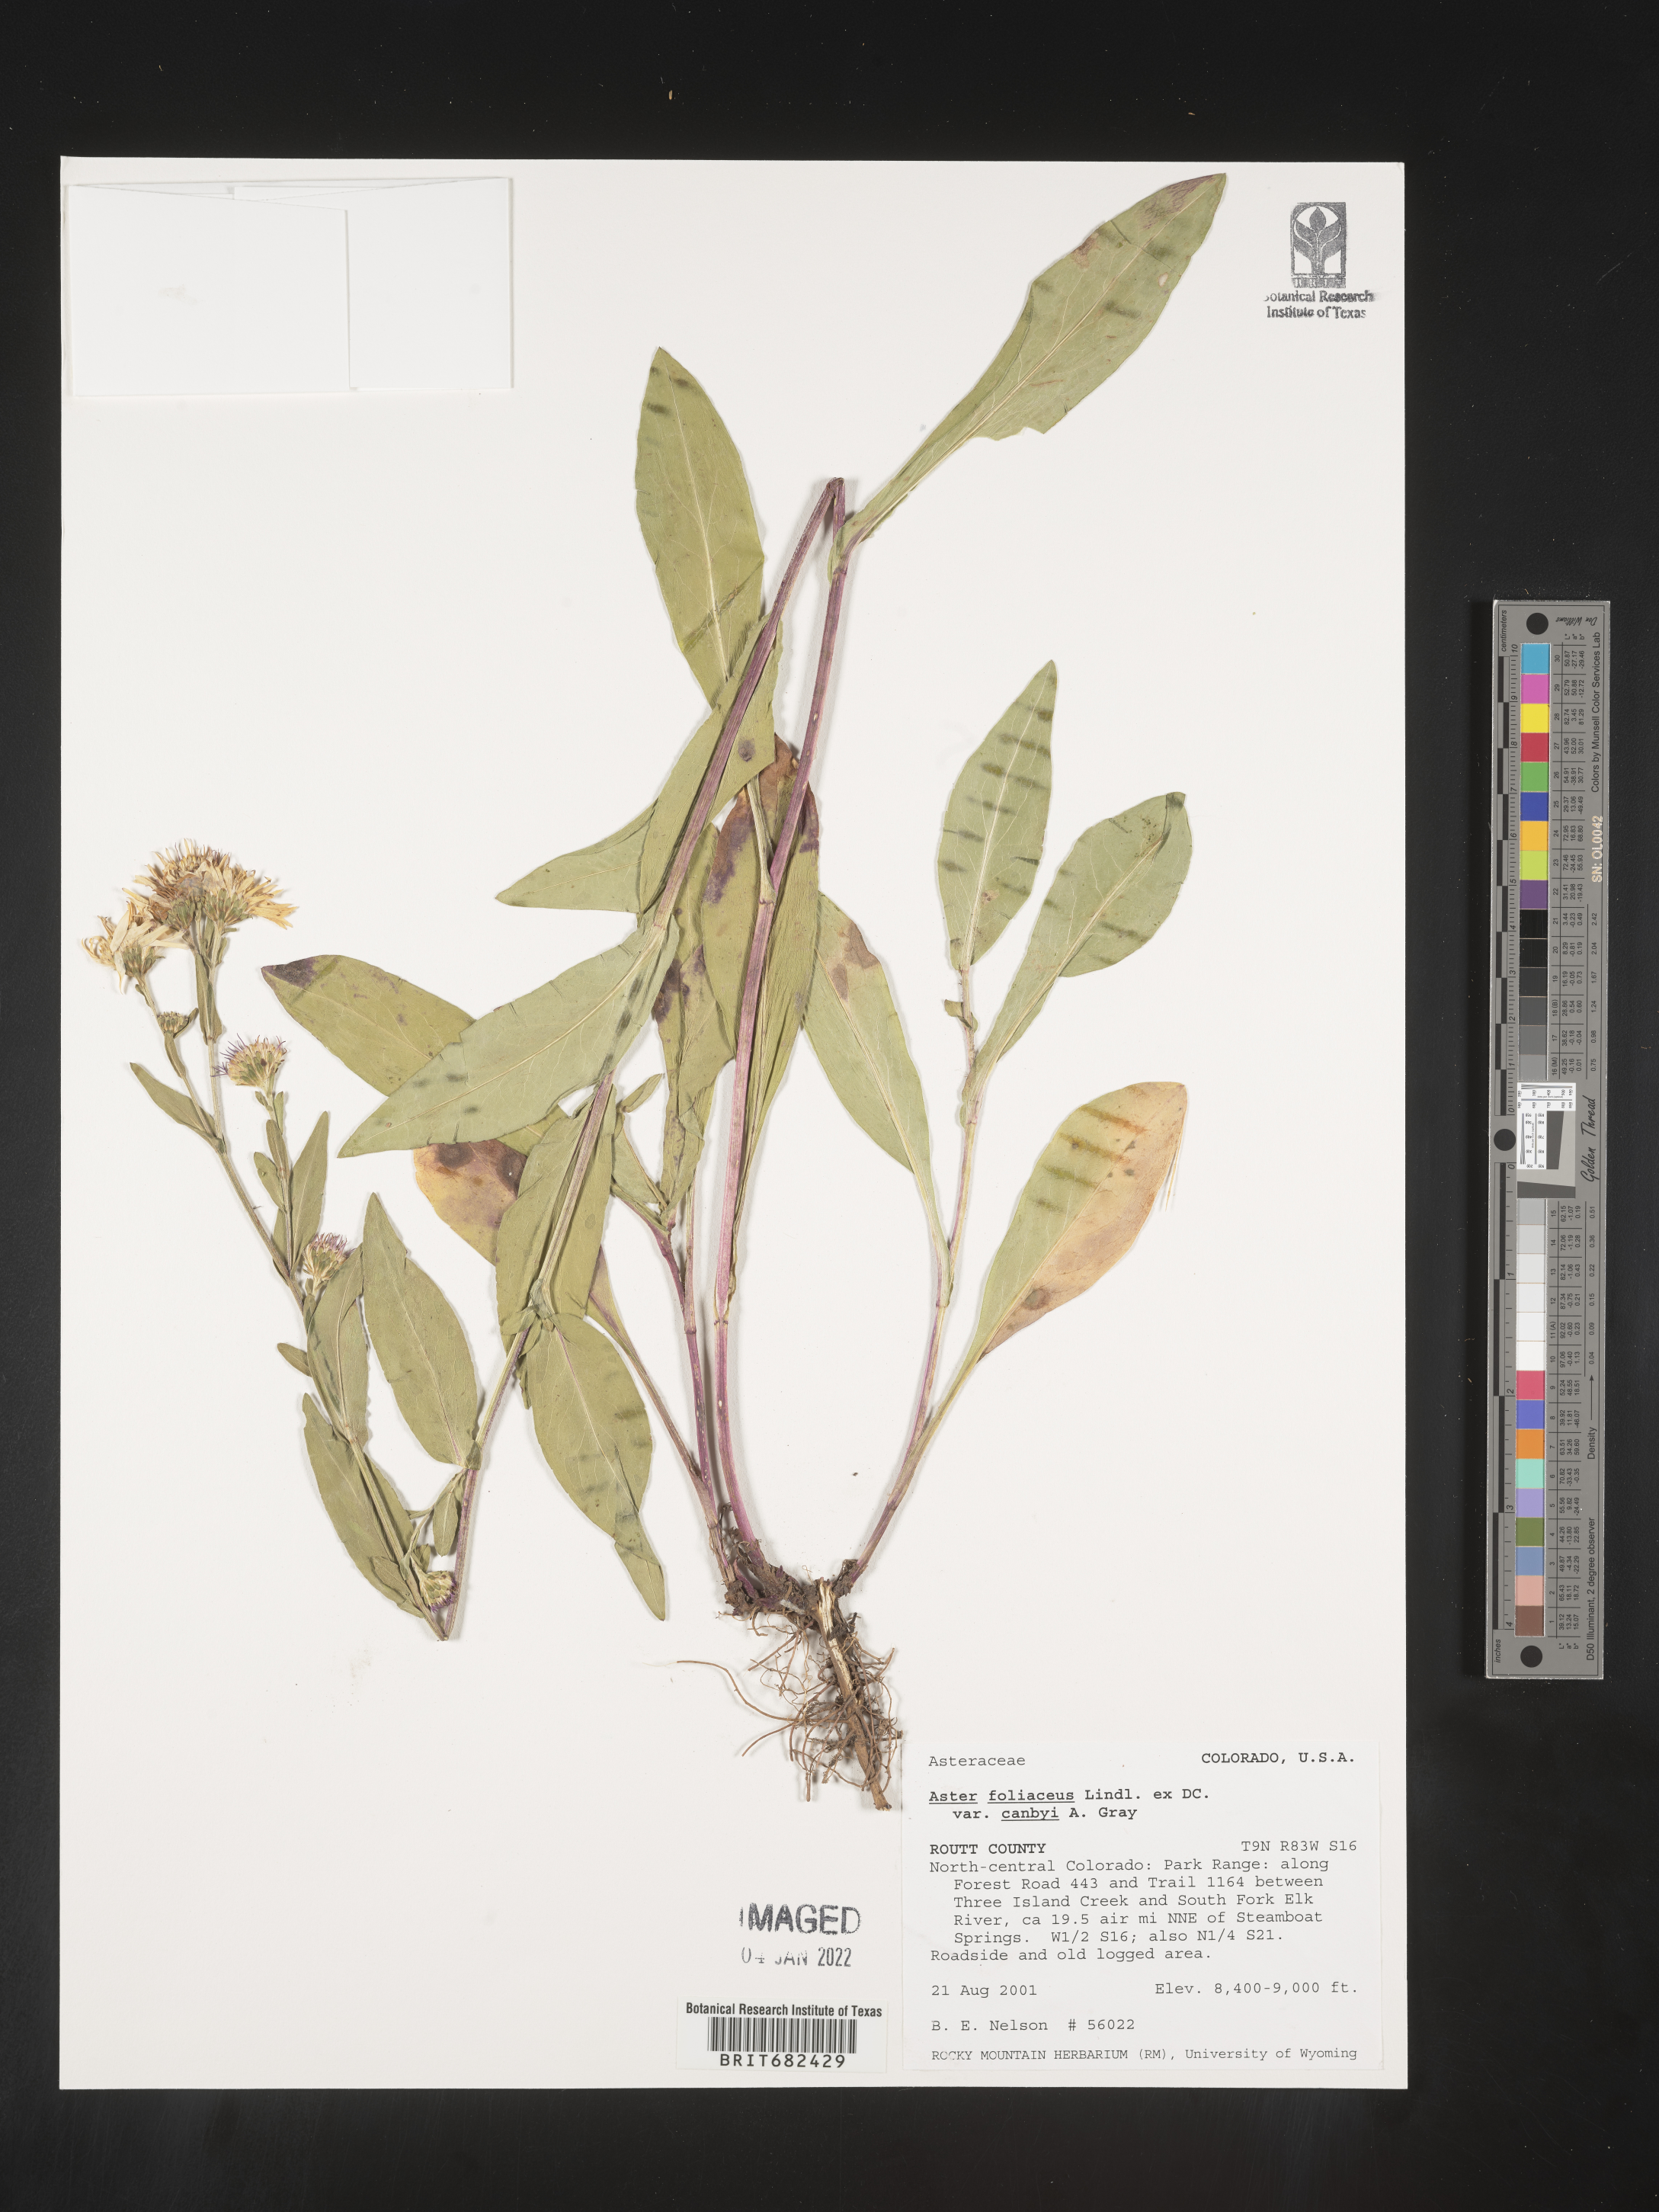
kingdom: Plantae
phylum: Tracheophyta
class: Magnoliopsida
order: Asterales
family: Asteraceae
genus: Aster
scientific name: Aster
